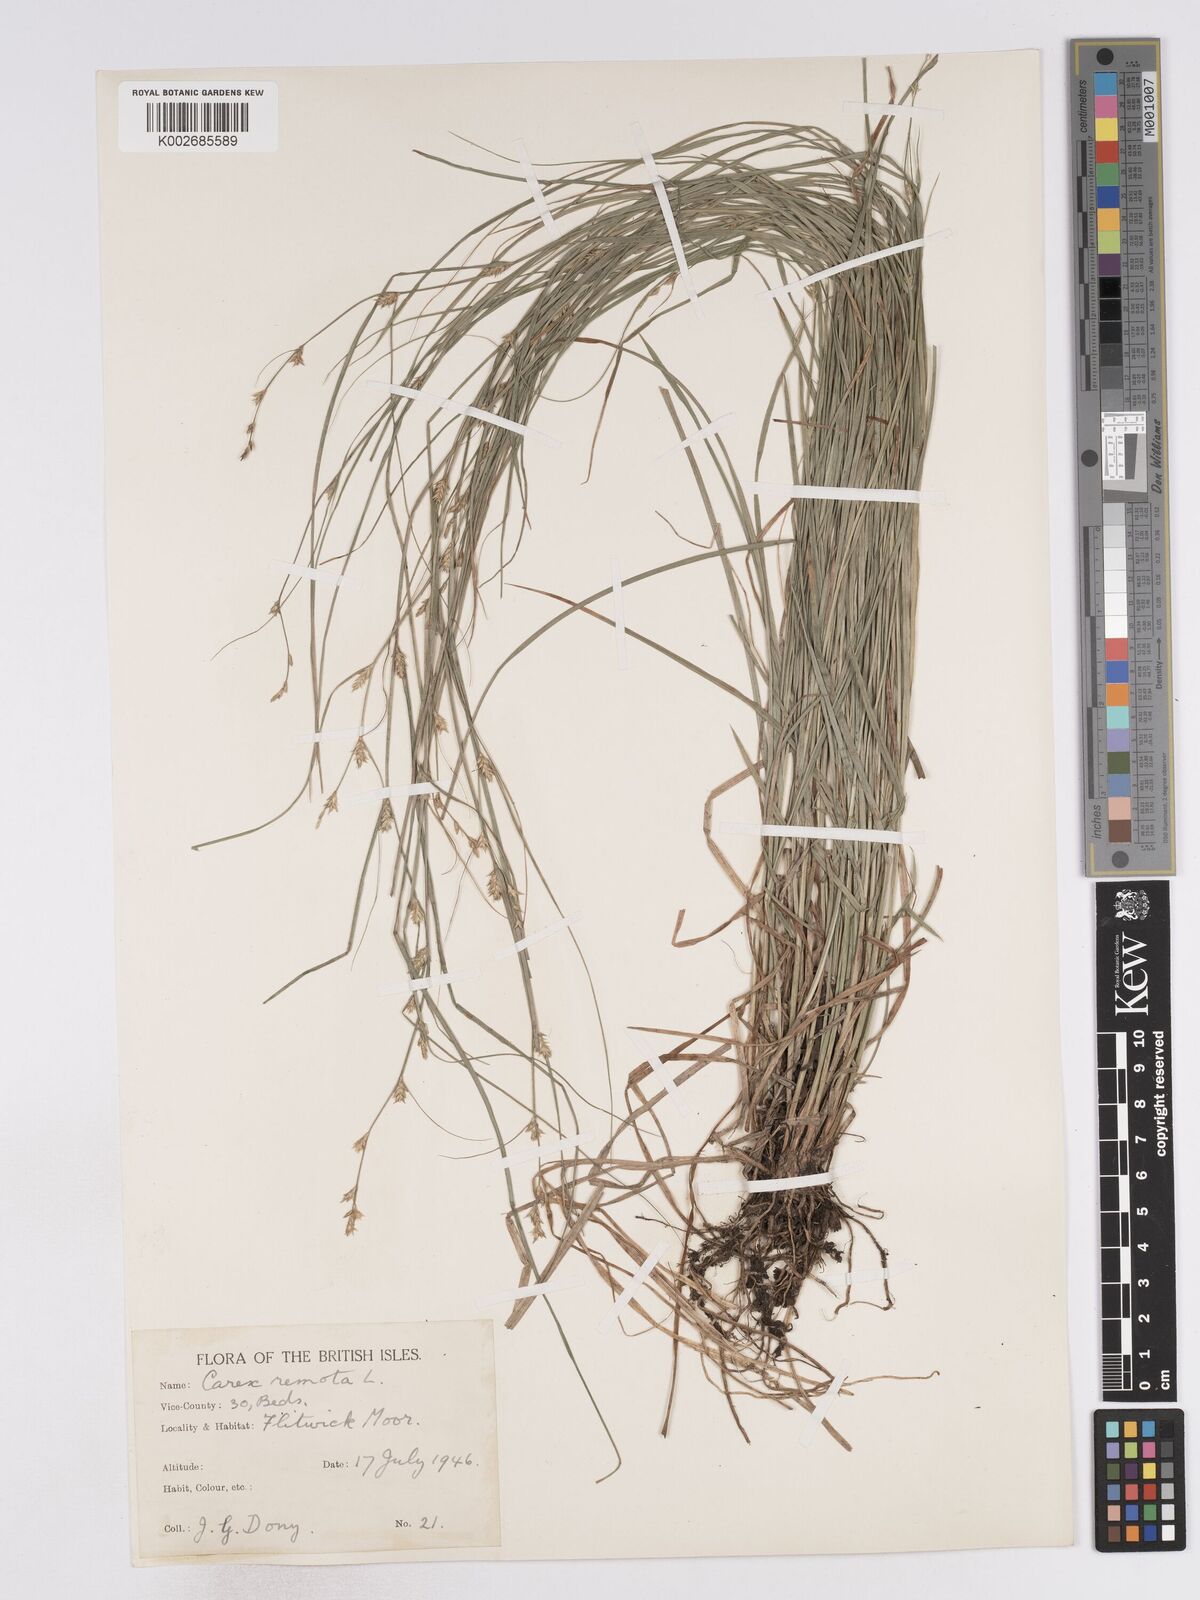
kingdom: Plantae
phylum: Tracheophyta
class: Liliopsida
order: Poales
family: Cyperaceae
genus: Carex
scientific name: Carex remota
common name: Remote sedge
